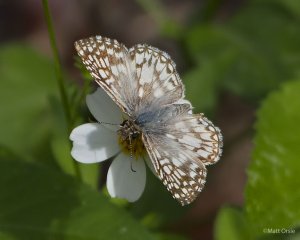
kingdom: Animalia
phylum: Arthropoda
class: Insecta
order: Lepidoptera
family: Hesperiidae
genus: Pyrgus
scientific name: Pyrgus oileus
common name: Tropical Checkered-Skipper
